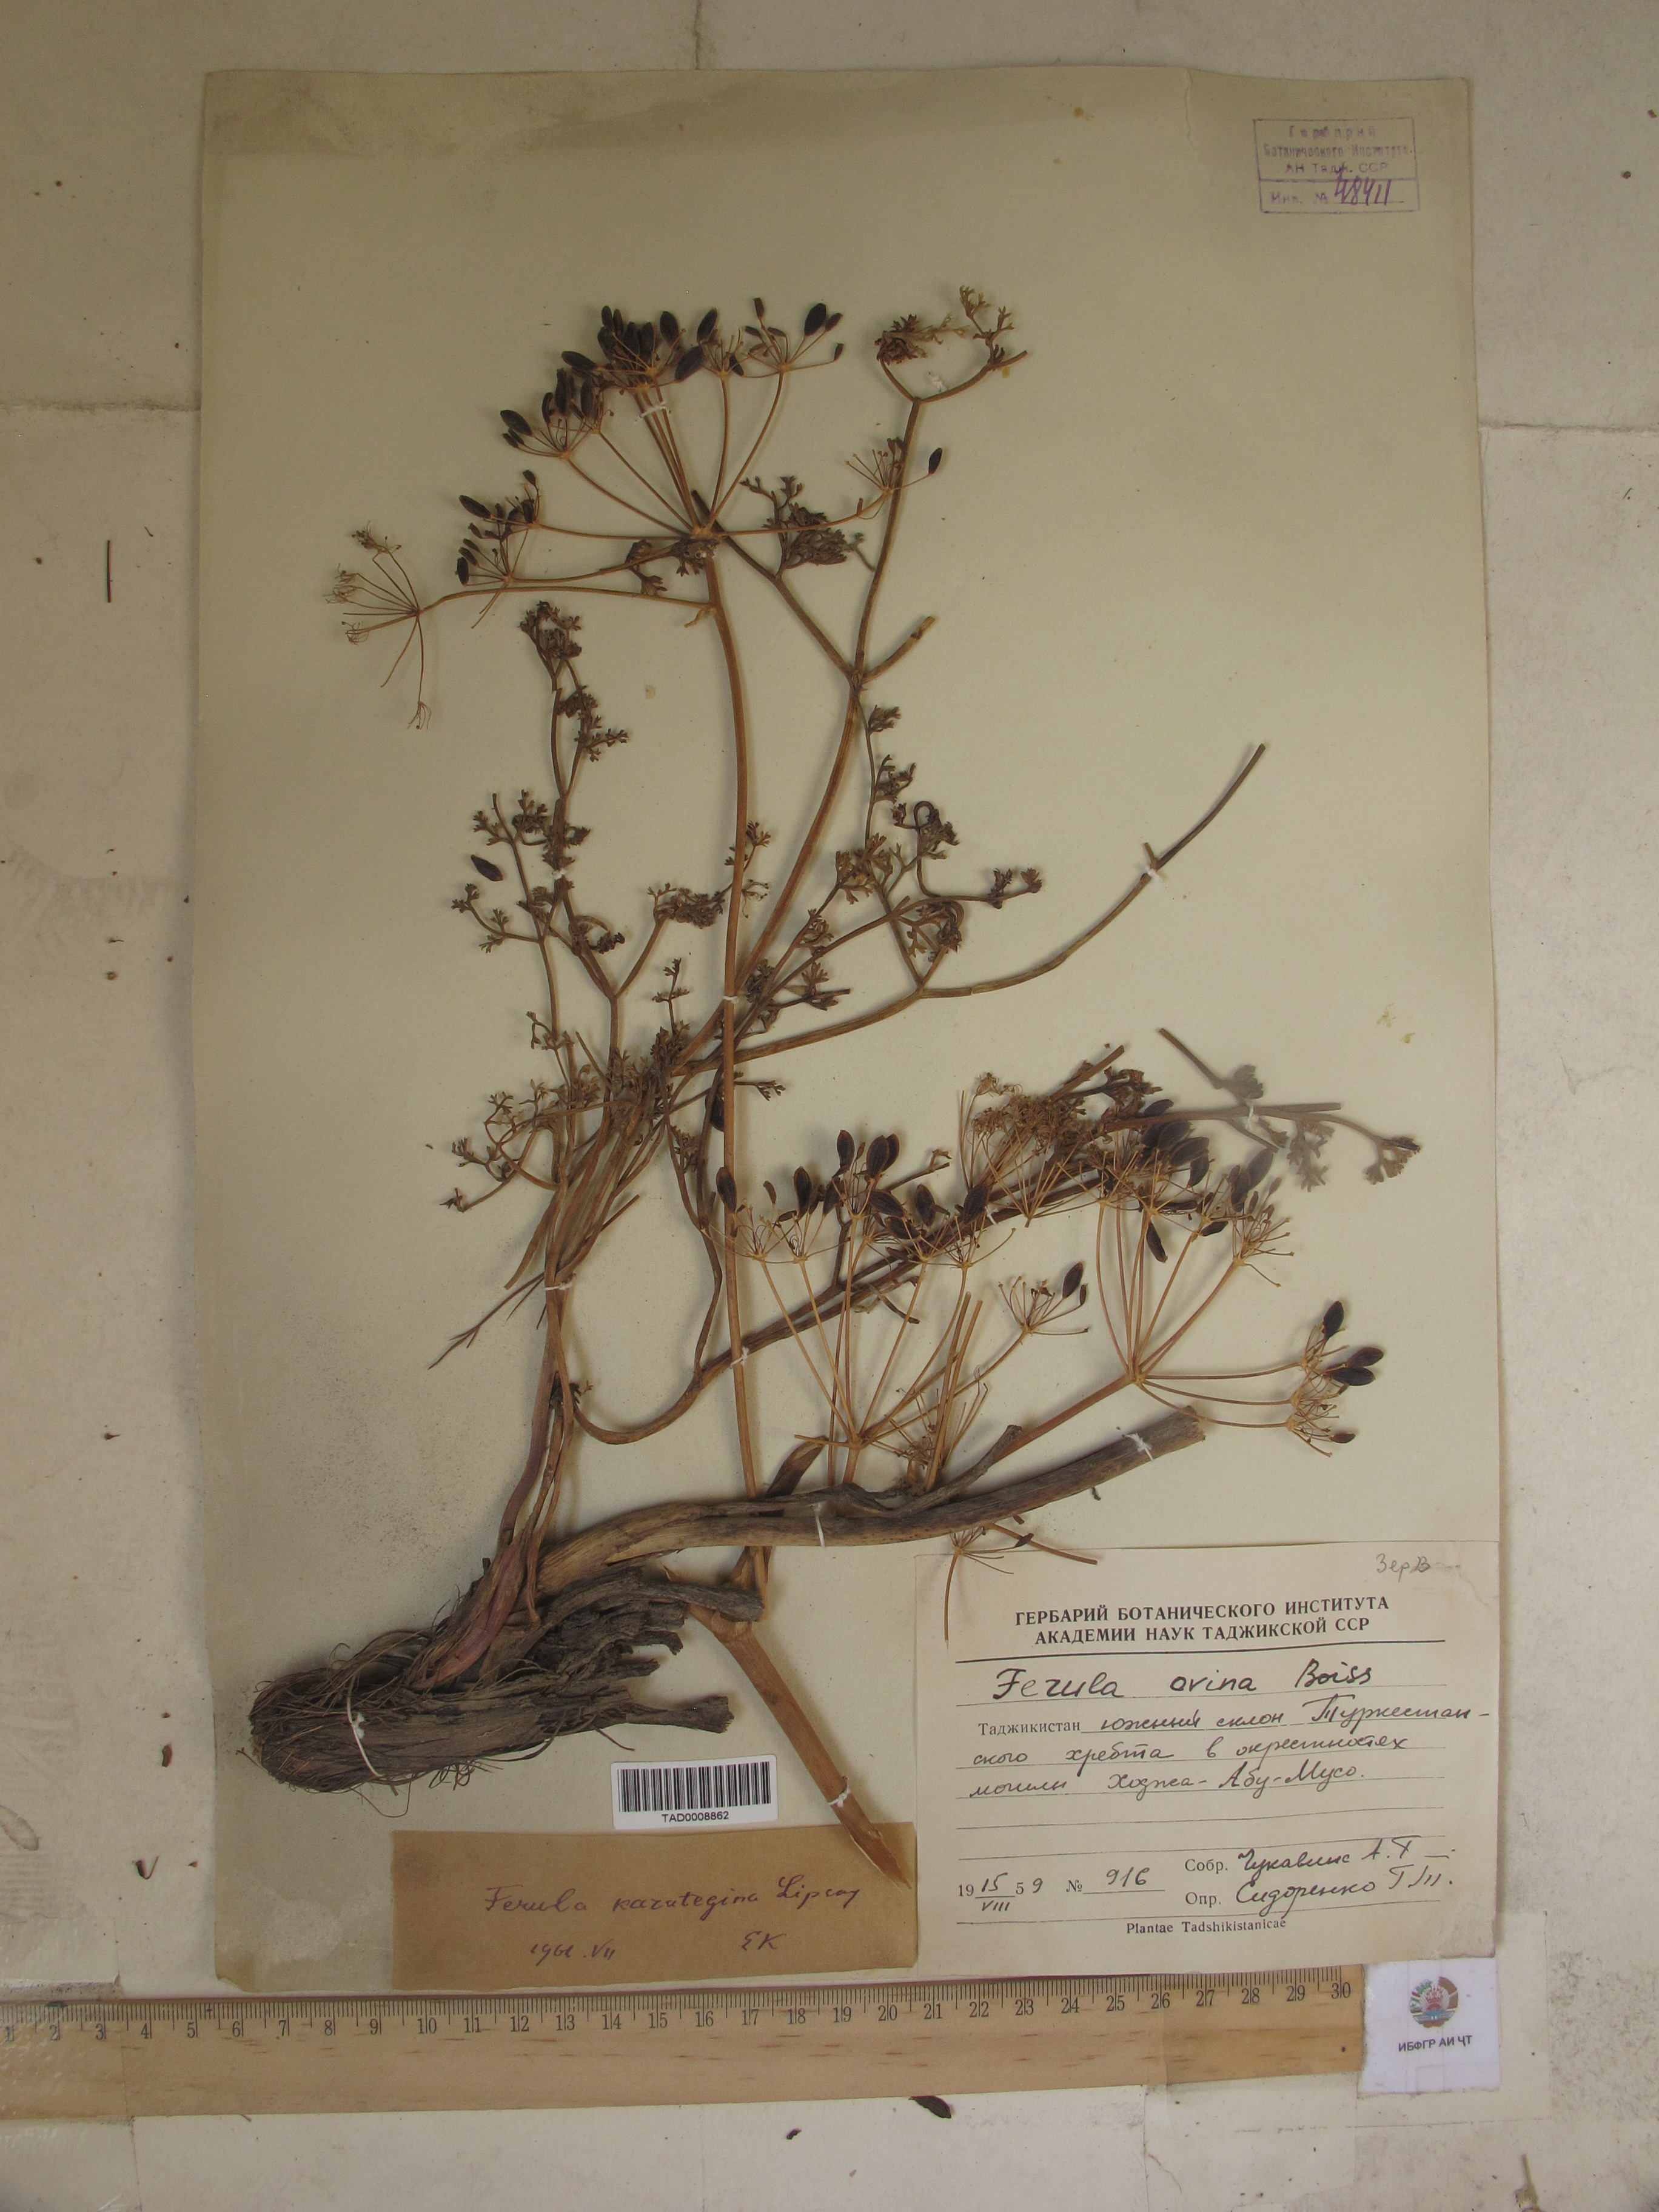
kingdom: Plantae
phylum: Tracheophyta
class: Magnoliopsida
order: Apiales
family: Apiaceae
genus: Ferula
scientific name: Ferula karategina
